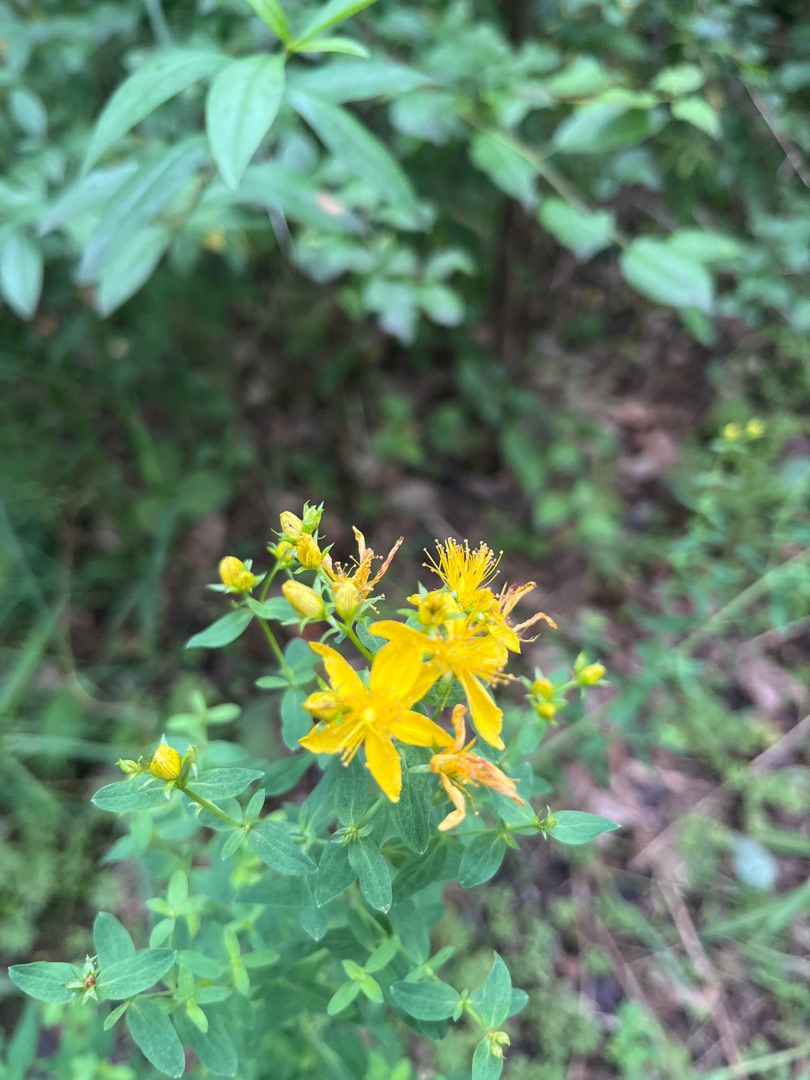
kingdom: Plantae
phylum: Tracheophyta
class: Magnoliopsida
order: Malpighiales
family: Hypericaceae
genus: Hypericum
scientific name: Hypericum perforatum
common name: Prikbladet perikon
